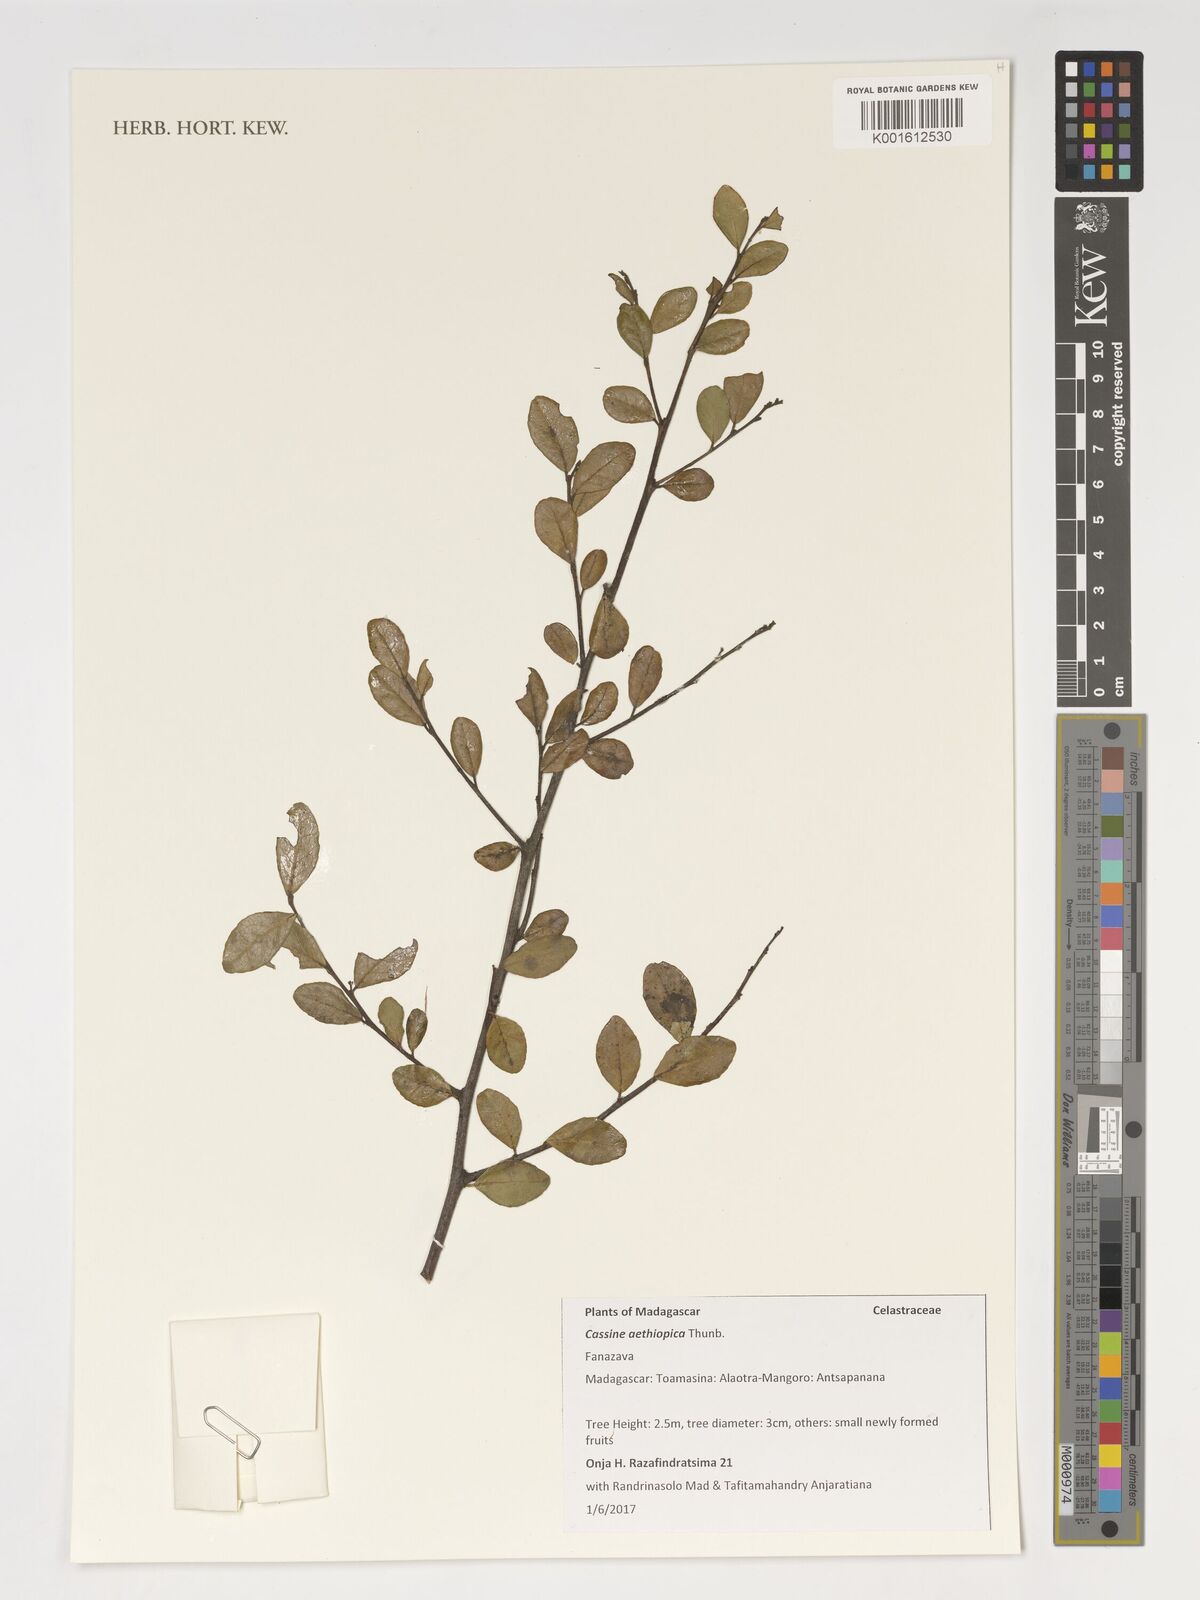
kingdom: Plantae
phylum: Tracheophyta
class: Magnoliopsida
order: Celastrales
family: Celastraceae
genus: Mystroxylon
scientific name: Mystroxylon aethiopicum
